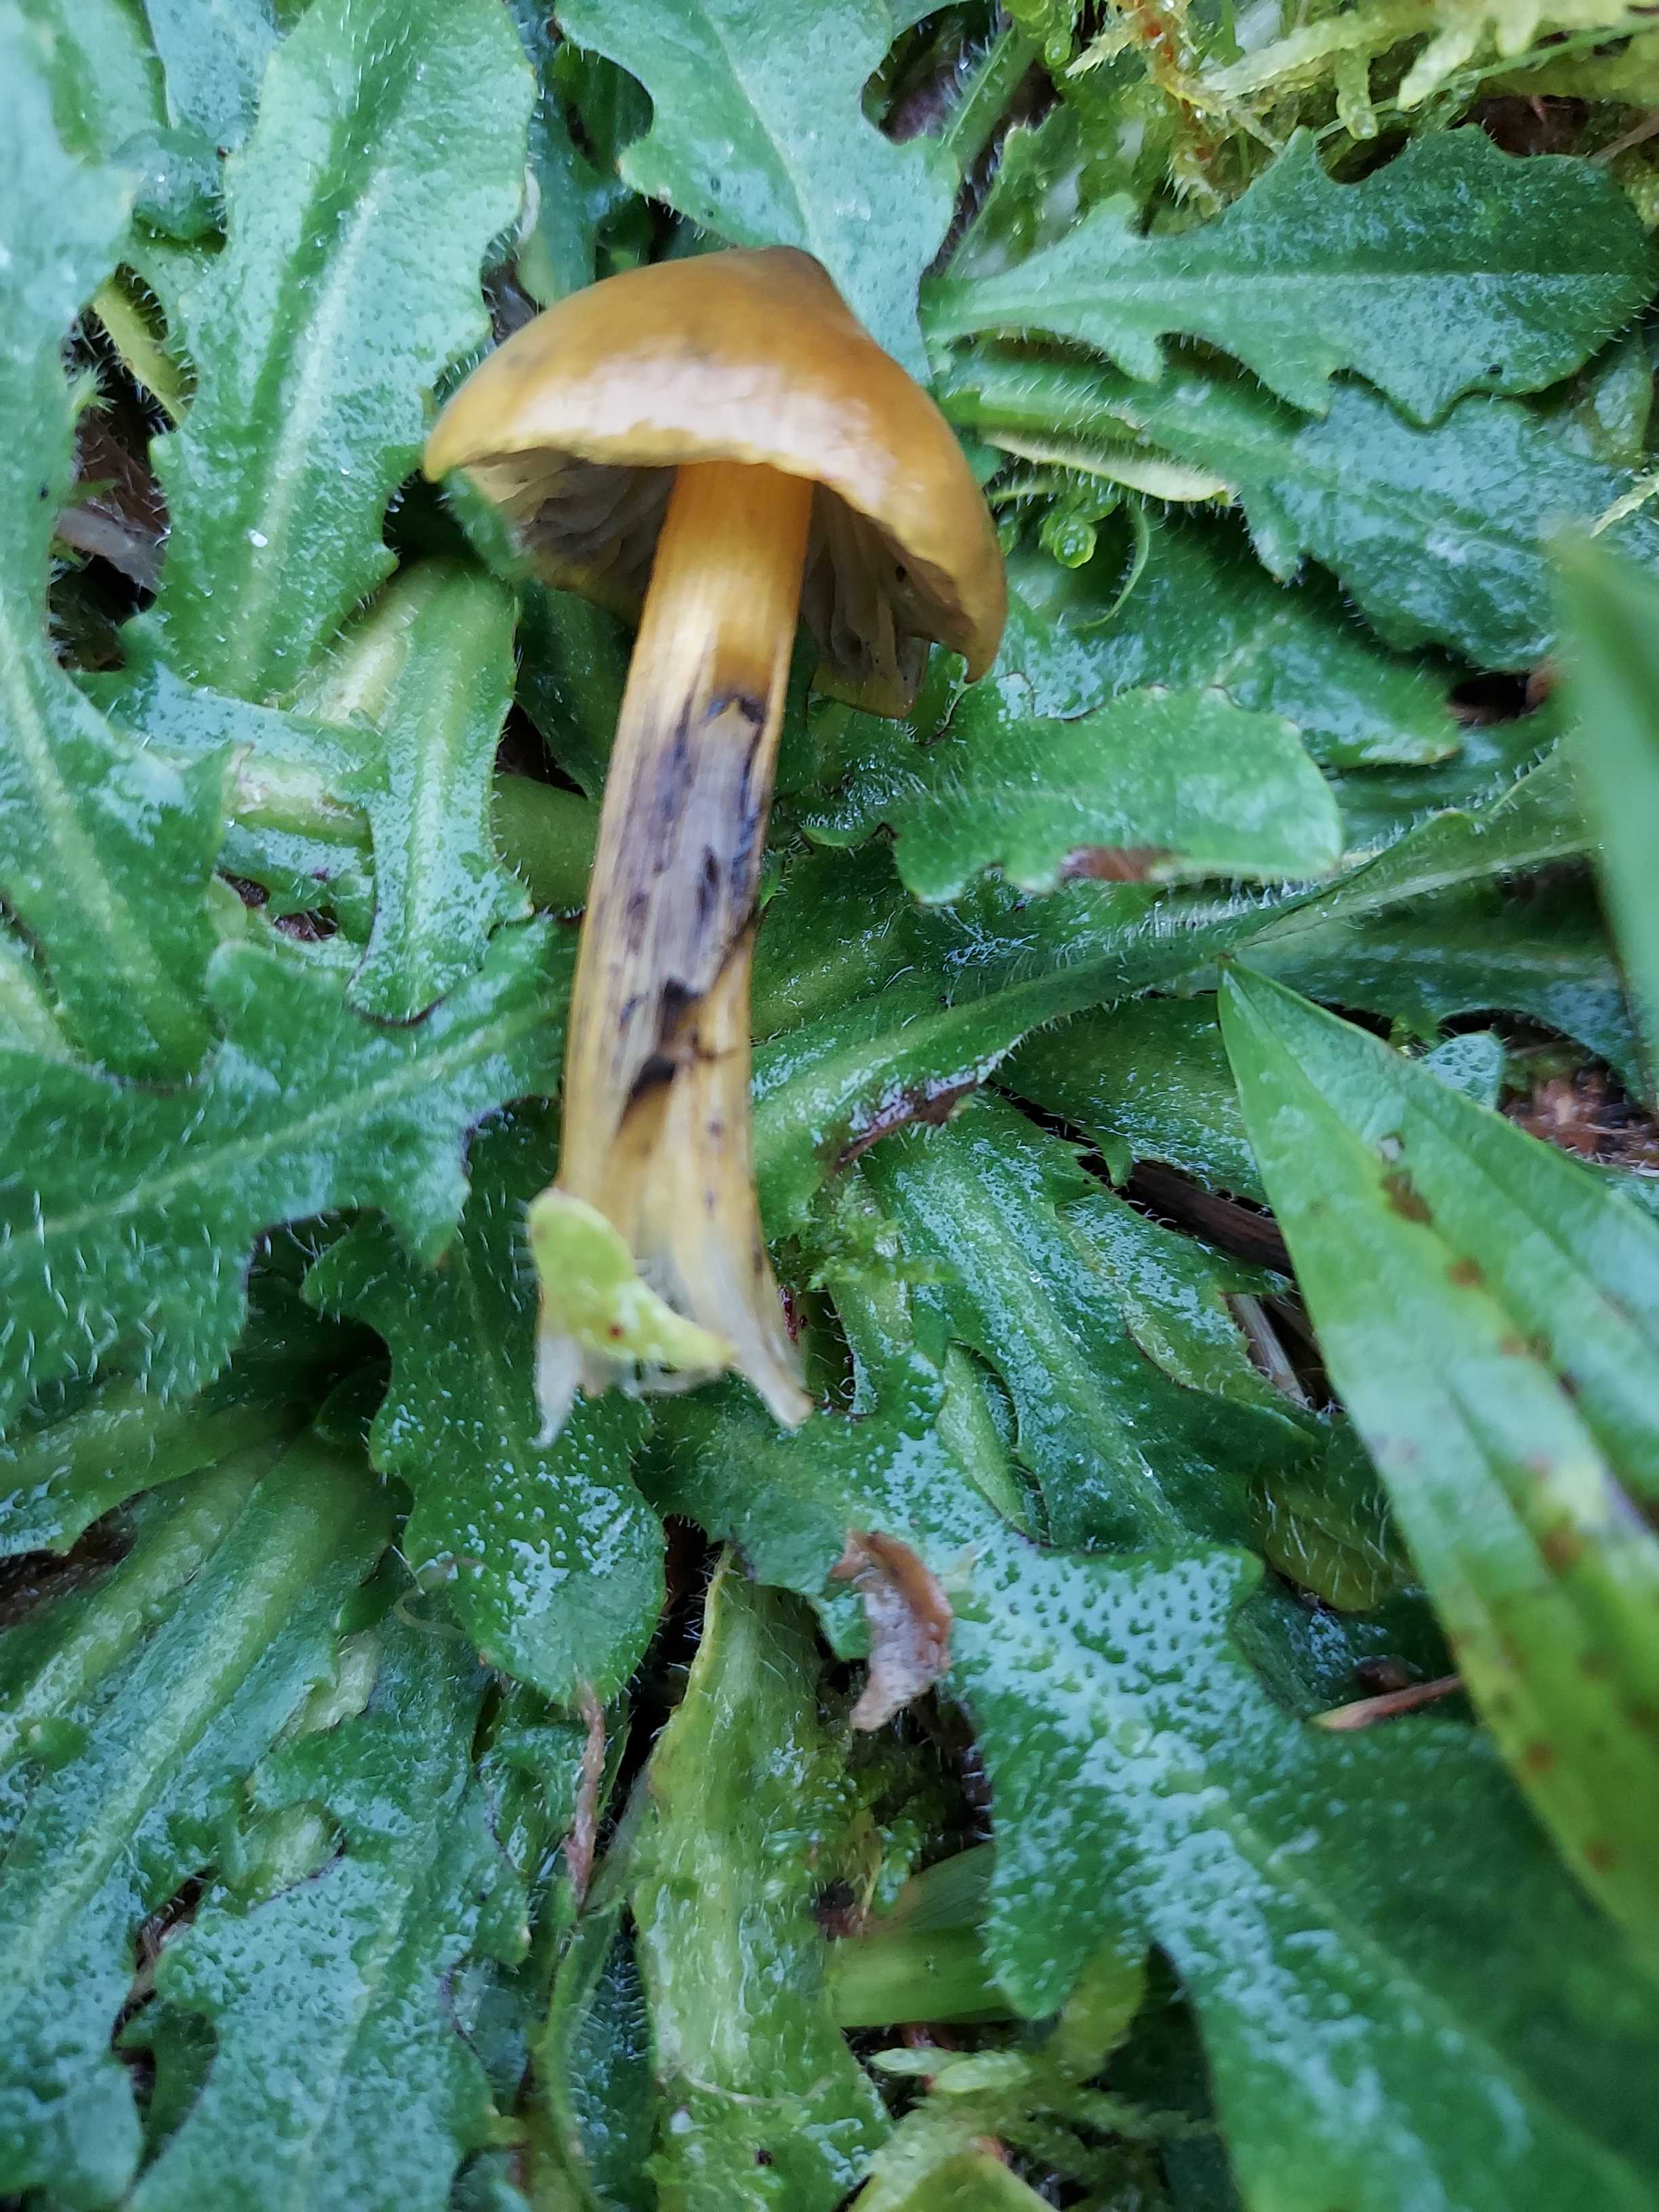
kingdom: Fungi
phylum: Basidiomycota
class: Agaricomycetes
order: Agaricales
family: Hygrophoraceae
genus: Hygrocybe
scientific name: Hygrocybe conica
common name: kegle-vokshat
